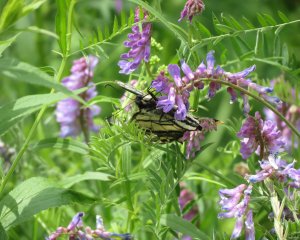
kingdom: Animalia
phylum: Arthropoda
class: Insecta
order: Lepidoptera
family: Papilionidae
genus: Pterourus
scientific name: Pterourus canadensis
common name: Canadian Tiger Swallowtail
